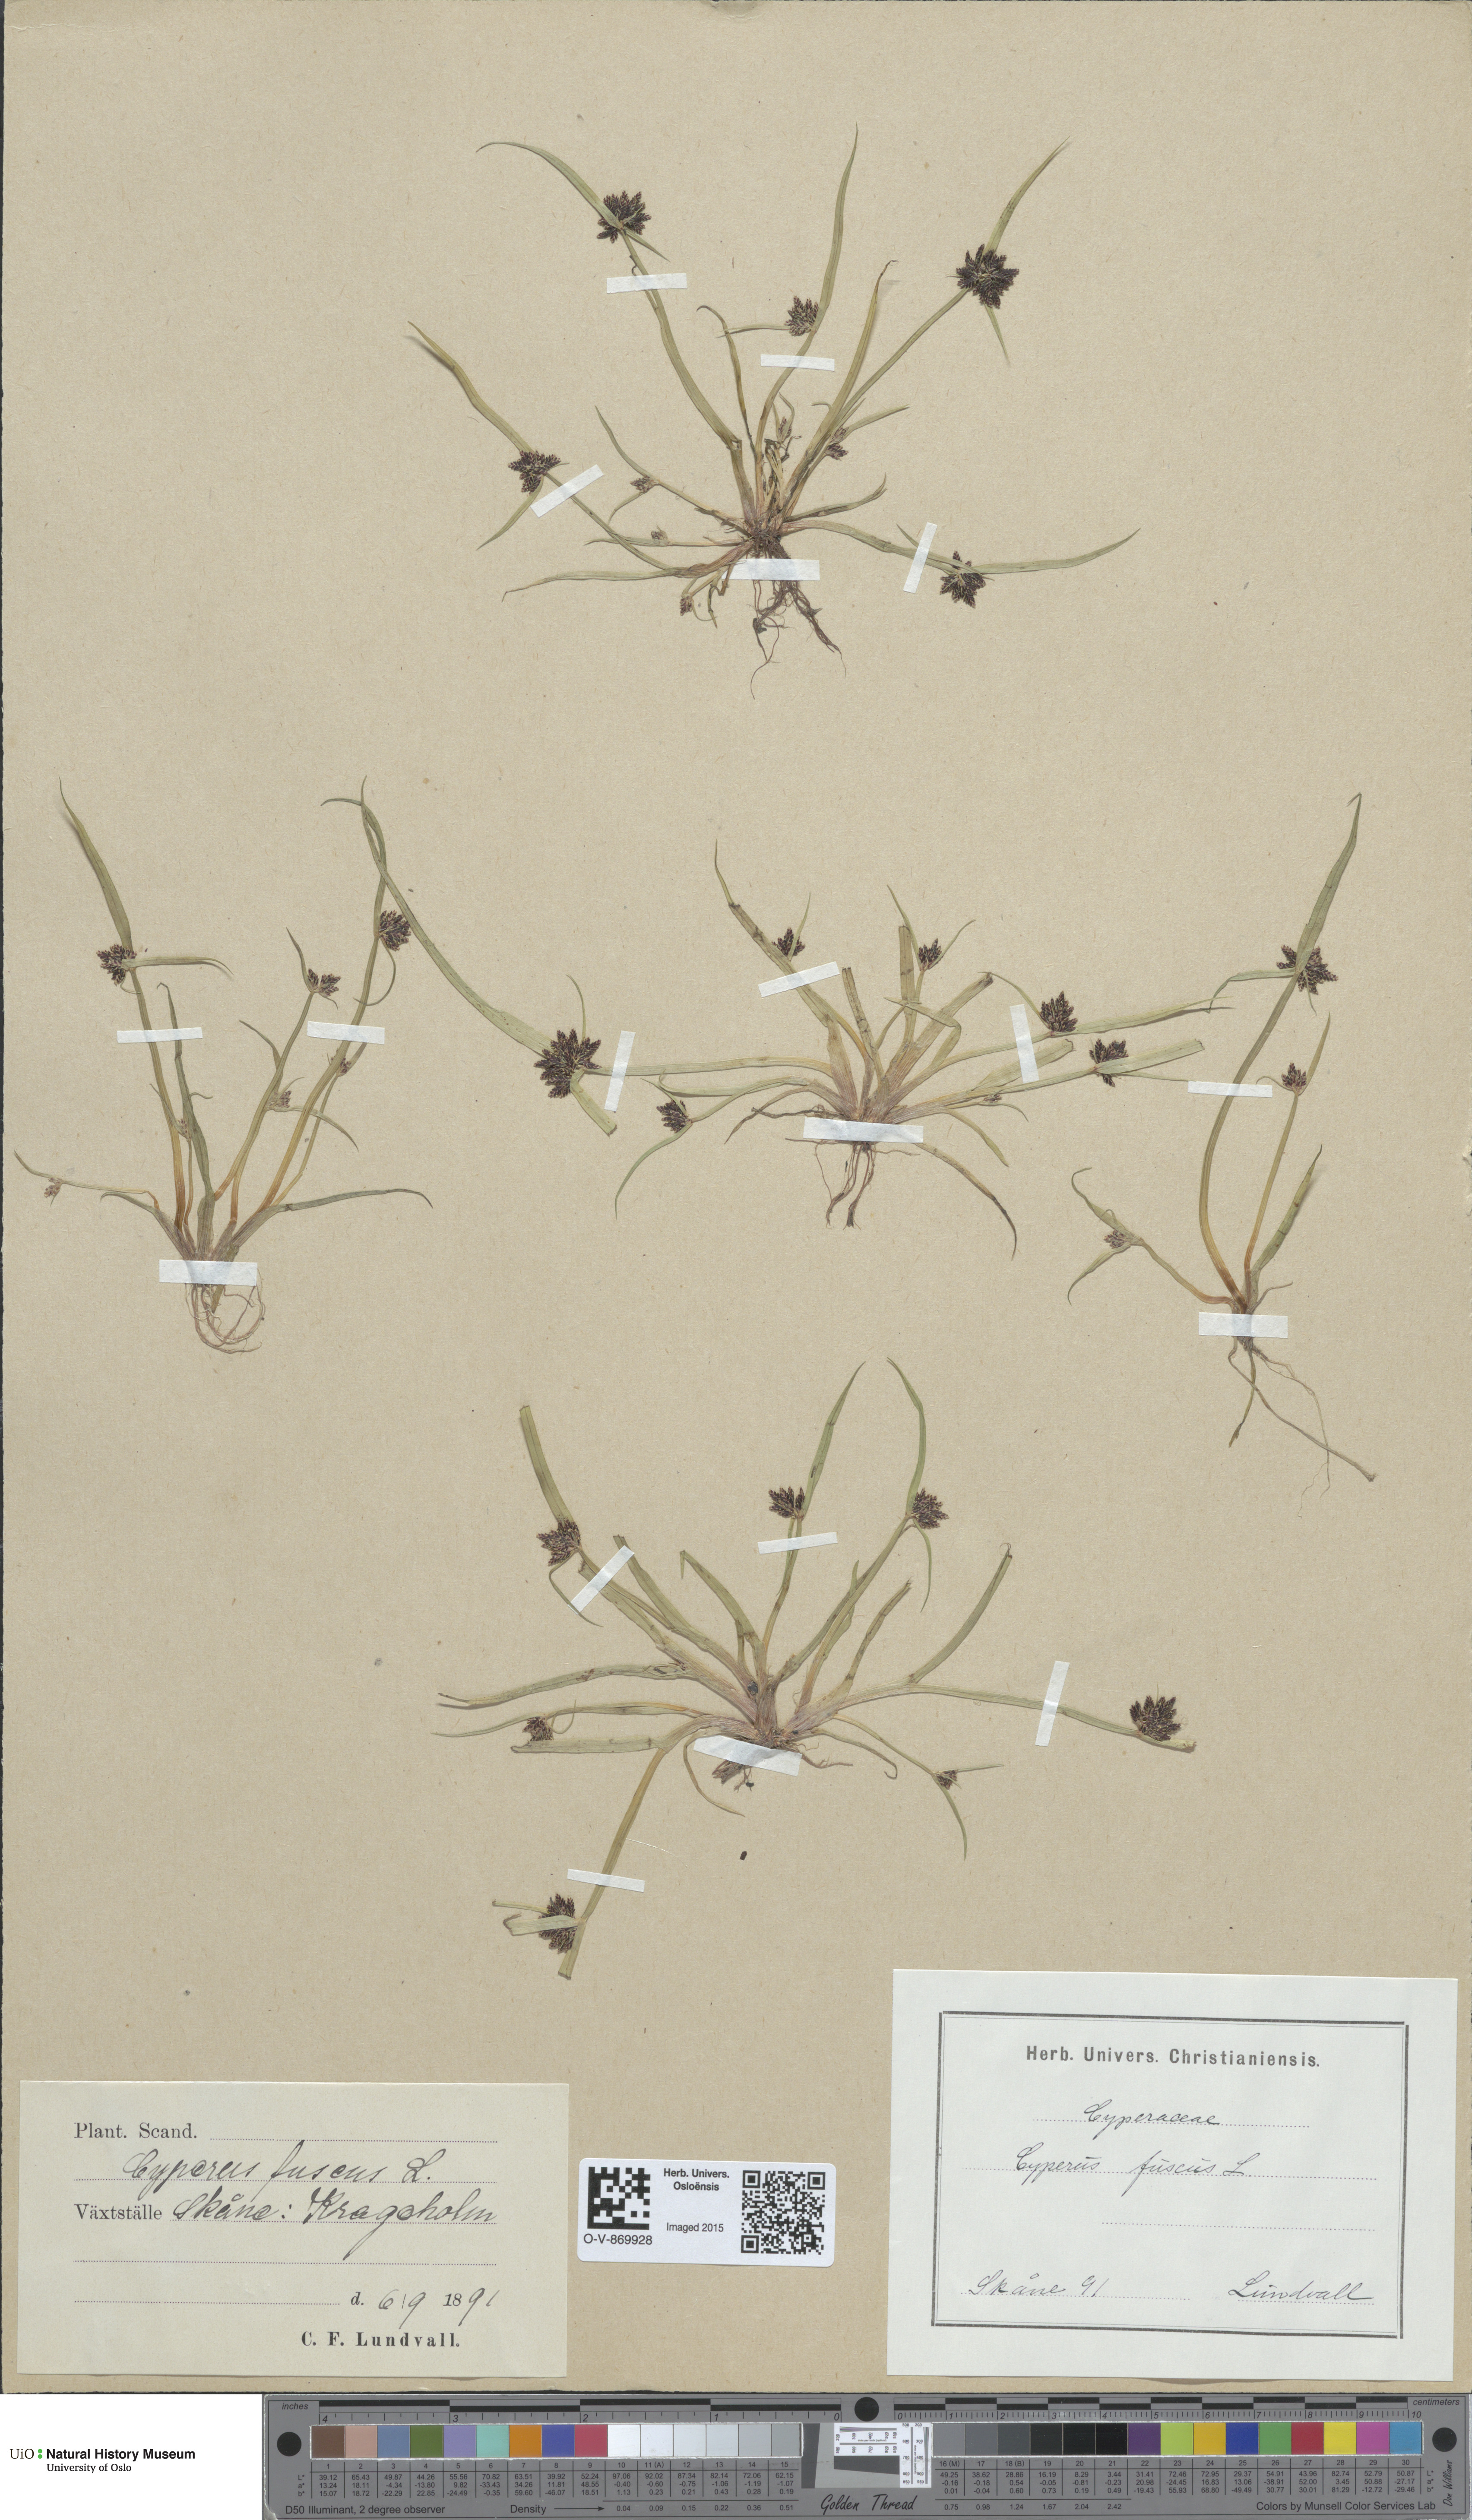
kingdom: Plantae
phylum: Tracheophyta
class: Liliopsida
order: Poales
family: Cyperaceae
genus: Cyperus
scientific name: Cyperus fuscus
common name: Brown galingale
